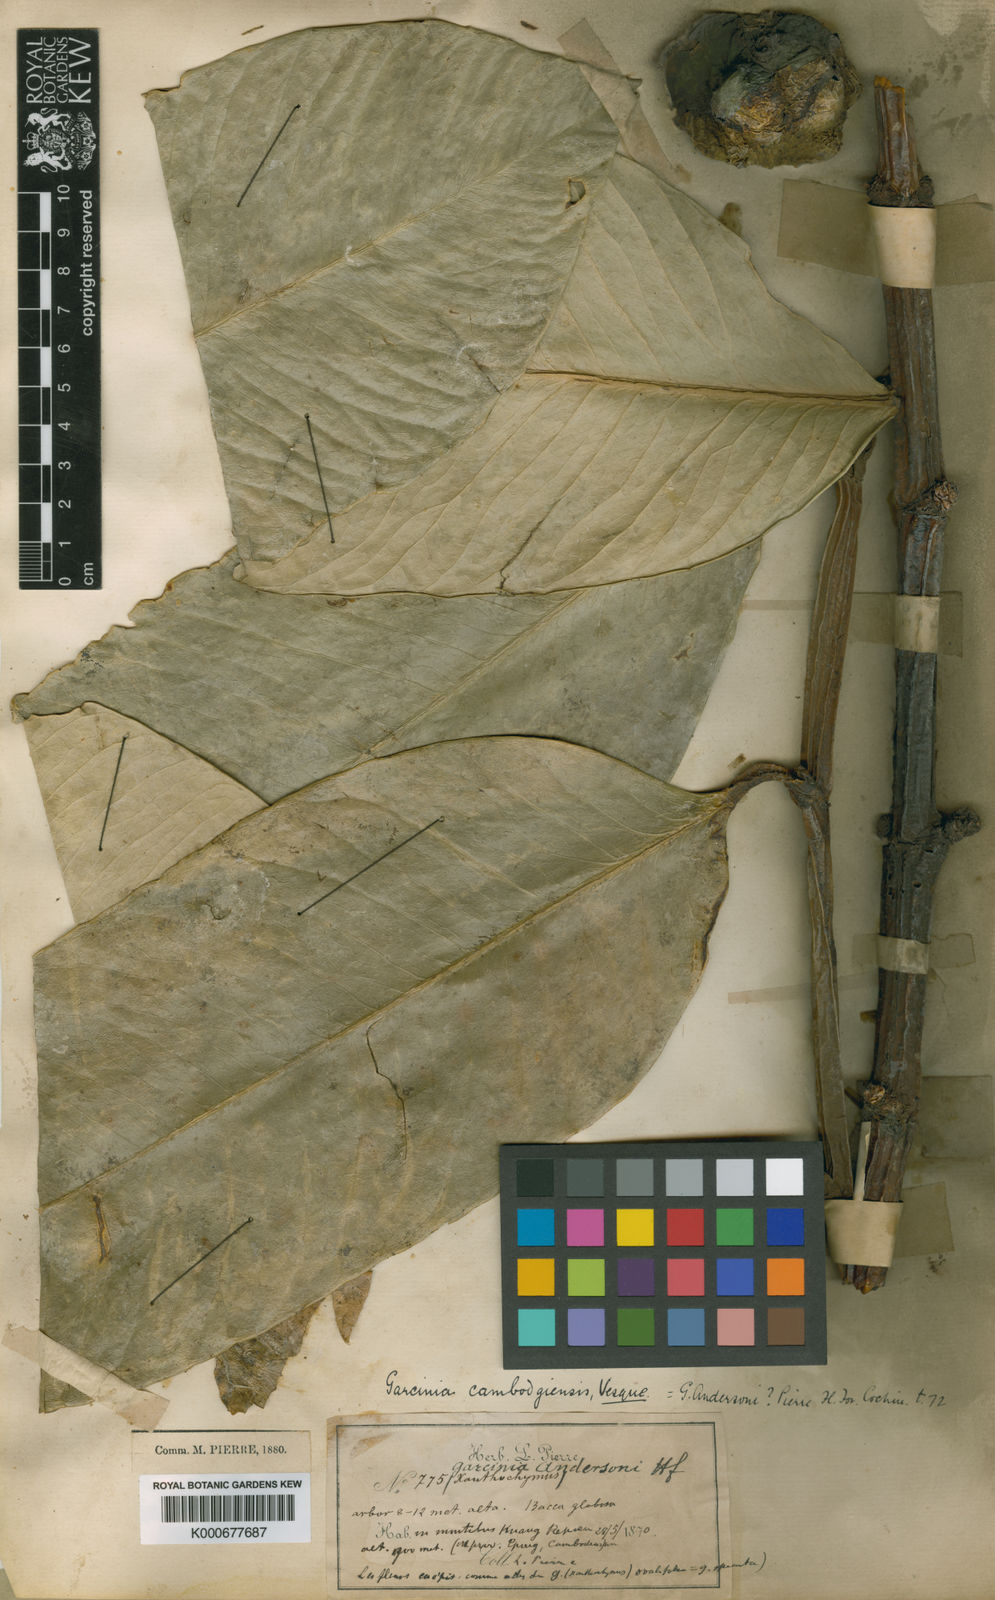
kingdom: Plantae
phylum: Tracheophyta
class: Magnoliopsida
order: Malpighiales
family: Clusiaceae
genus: Garcinia
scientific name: Garcinia xanthochymus
